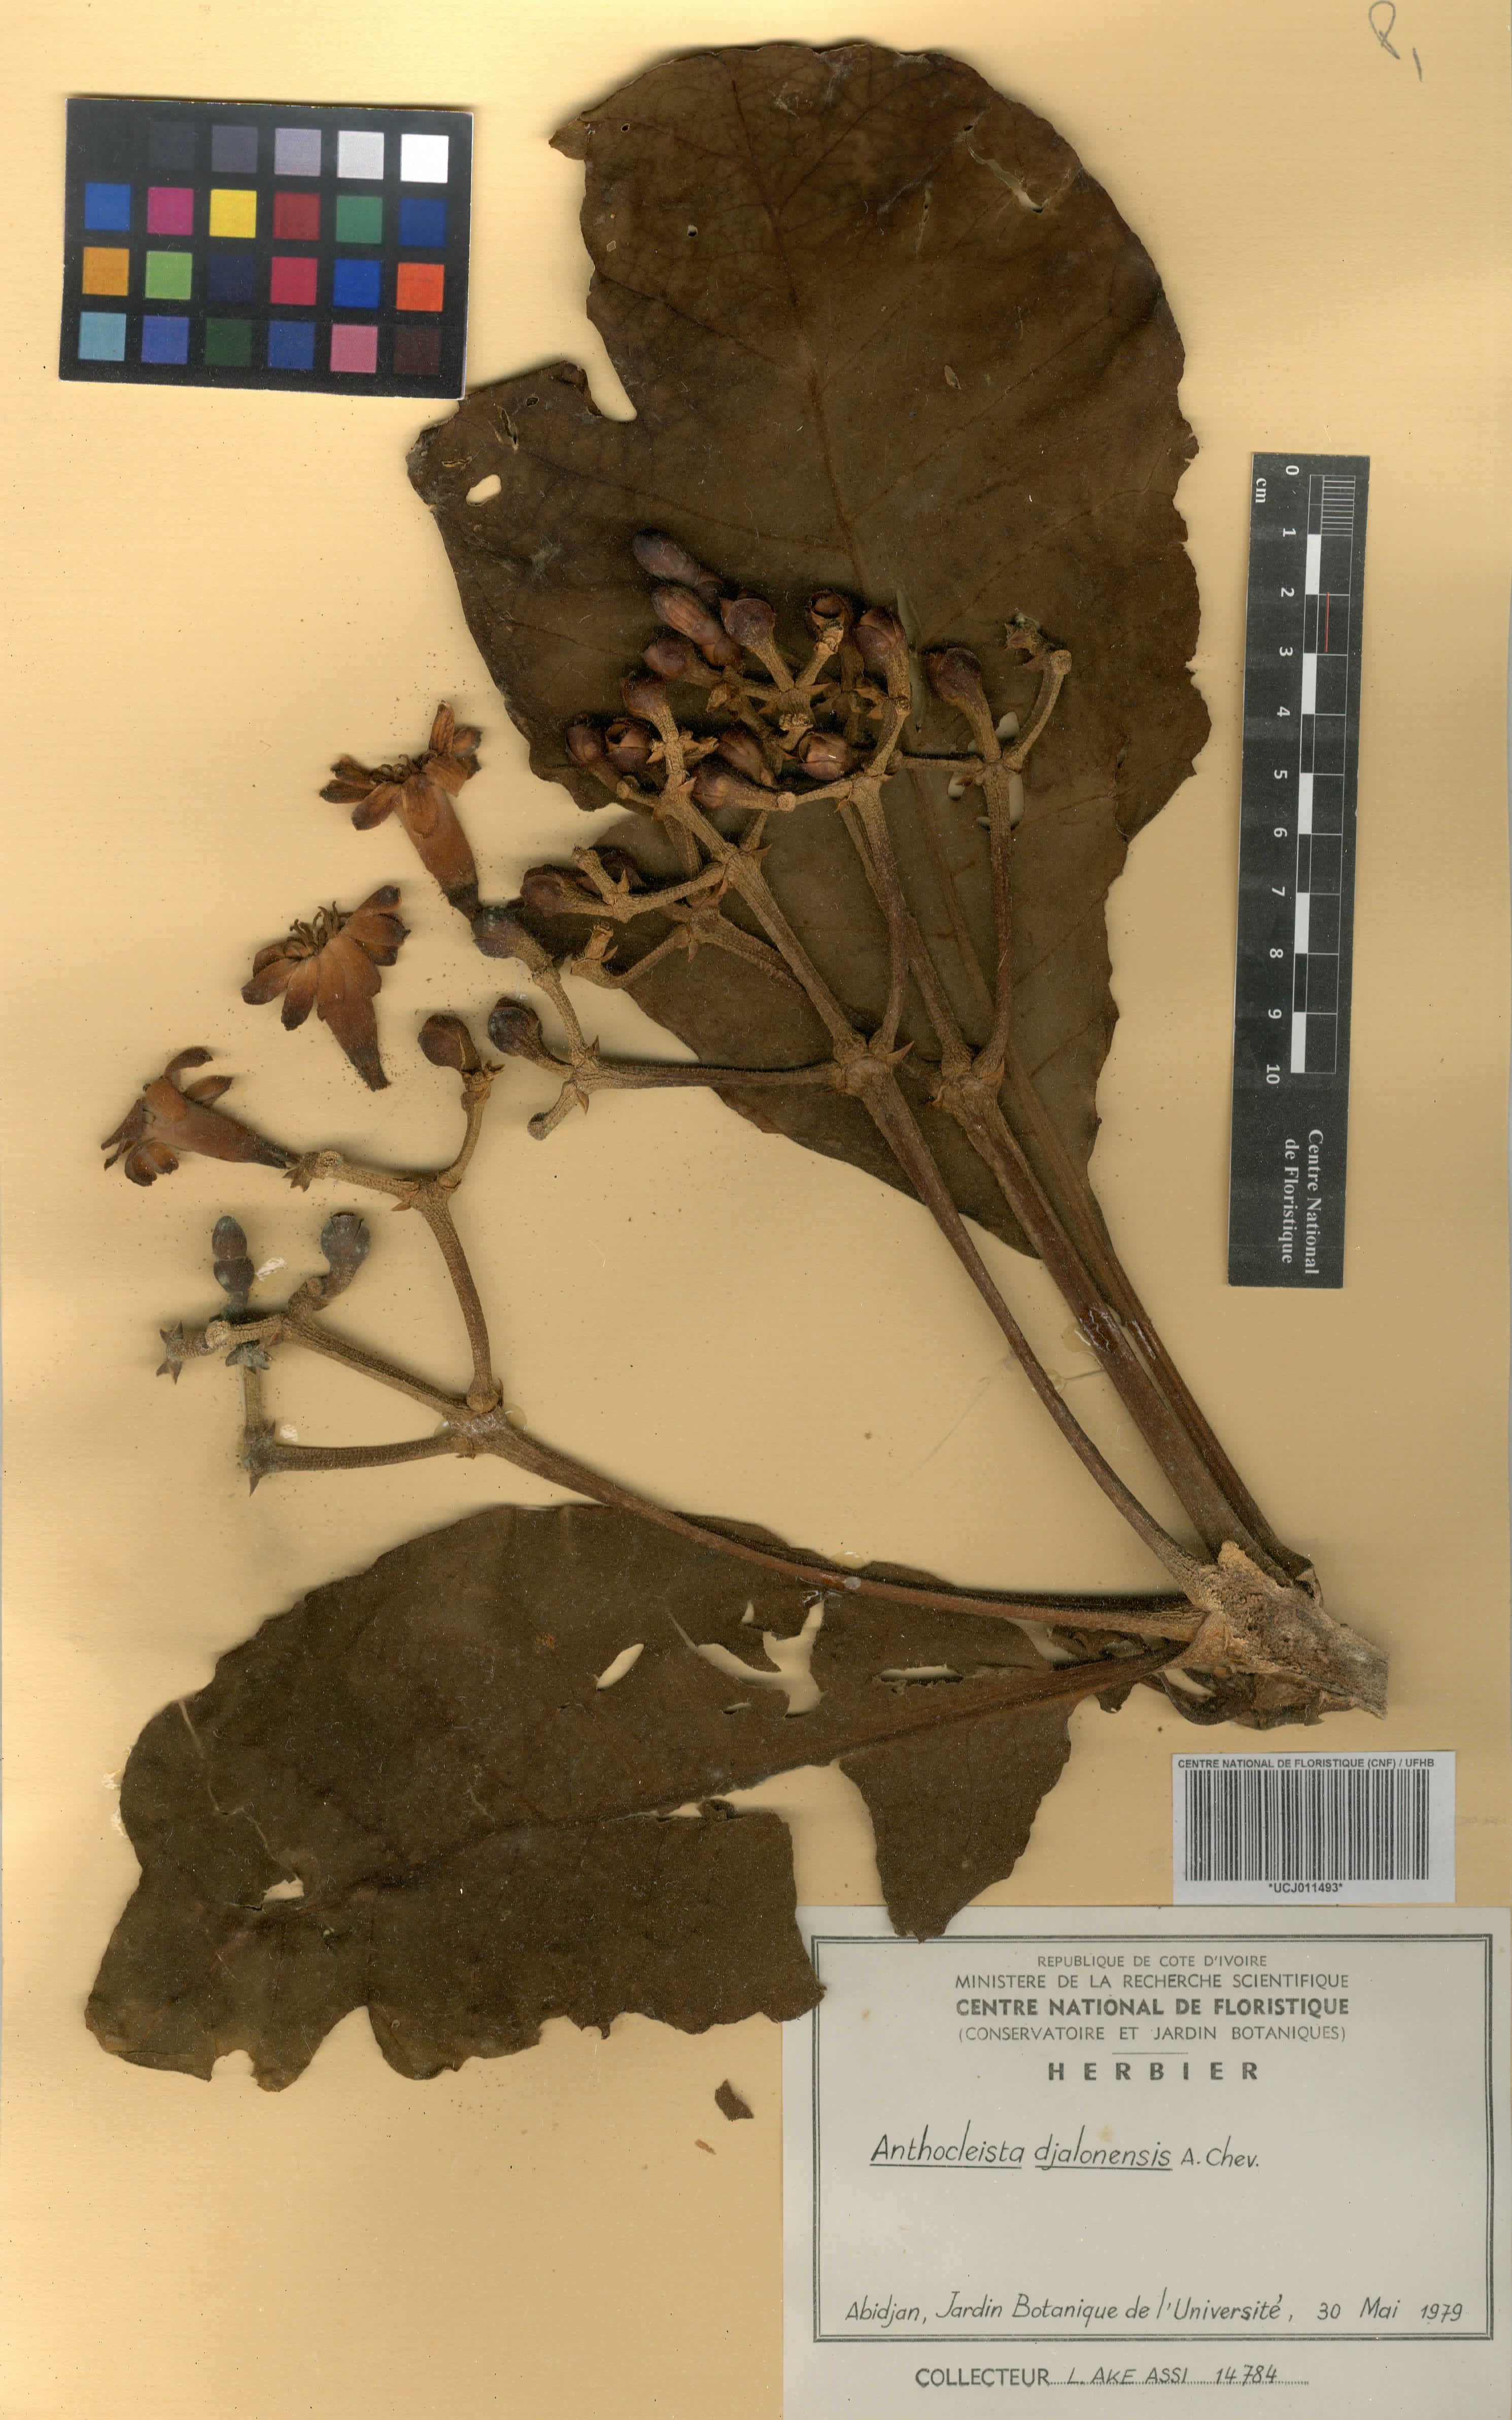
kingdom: Plantae
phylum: Tracheophyta
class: Magnoliopsida
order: Gentianales
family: Gentianaceae
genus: Anthocleista
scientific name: Anthocleista djalonensis
